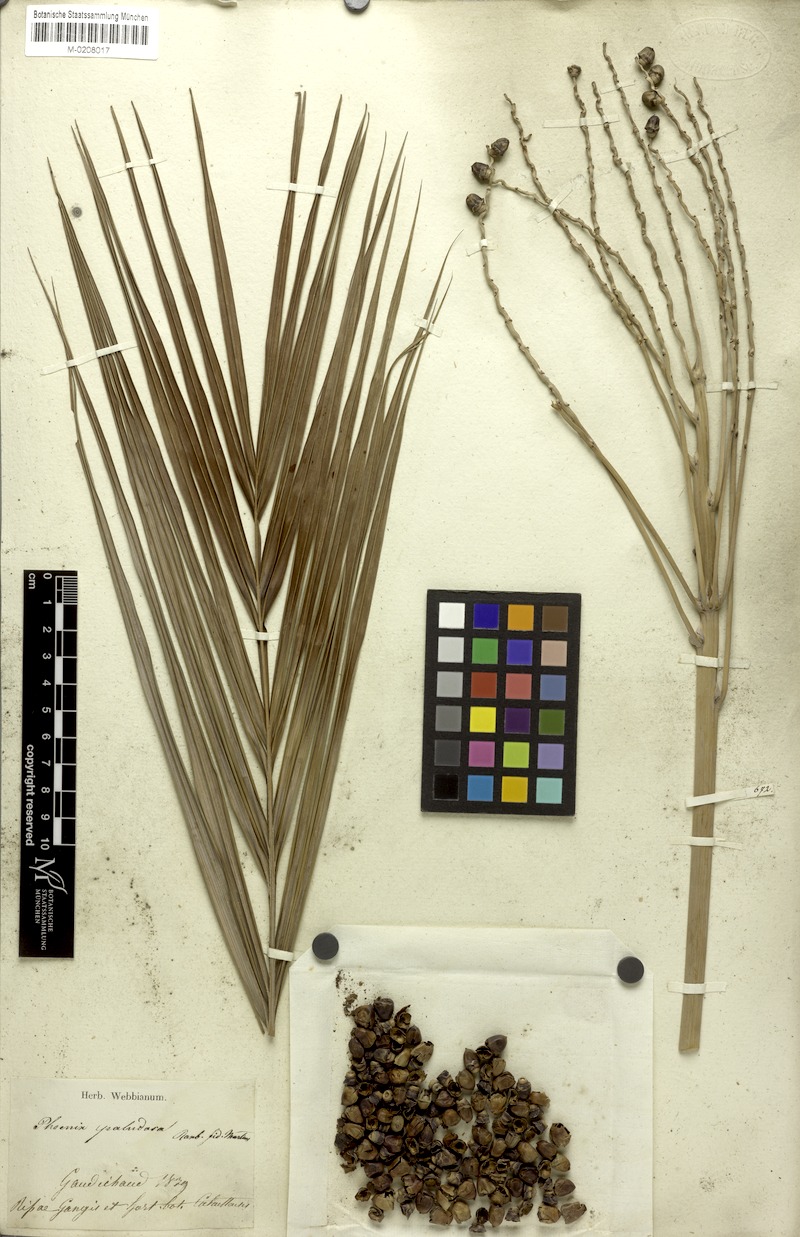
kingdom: Plantae
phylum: Tracheophyta
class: Liliopsida
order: Arecales
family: Arecaceae
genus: Phoenix
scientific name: Phoenix paludosa
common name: Mangrove date palm
